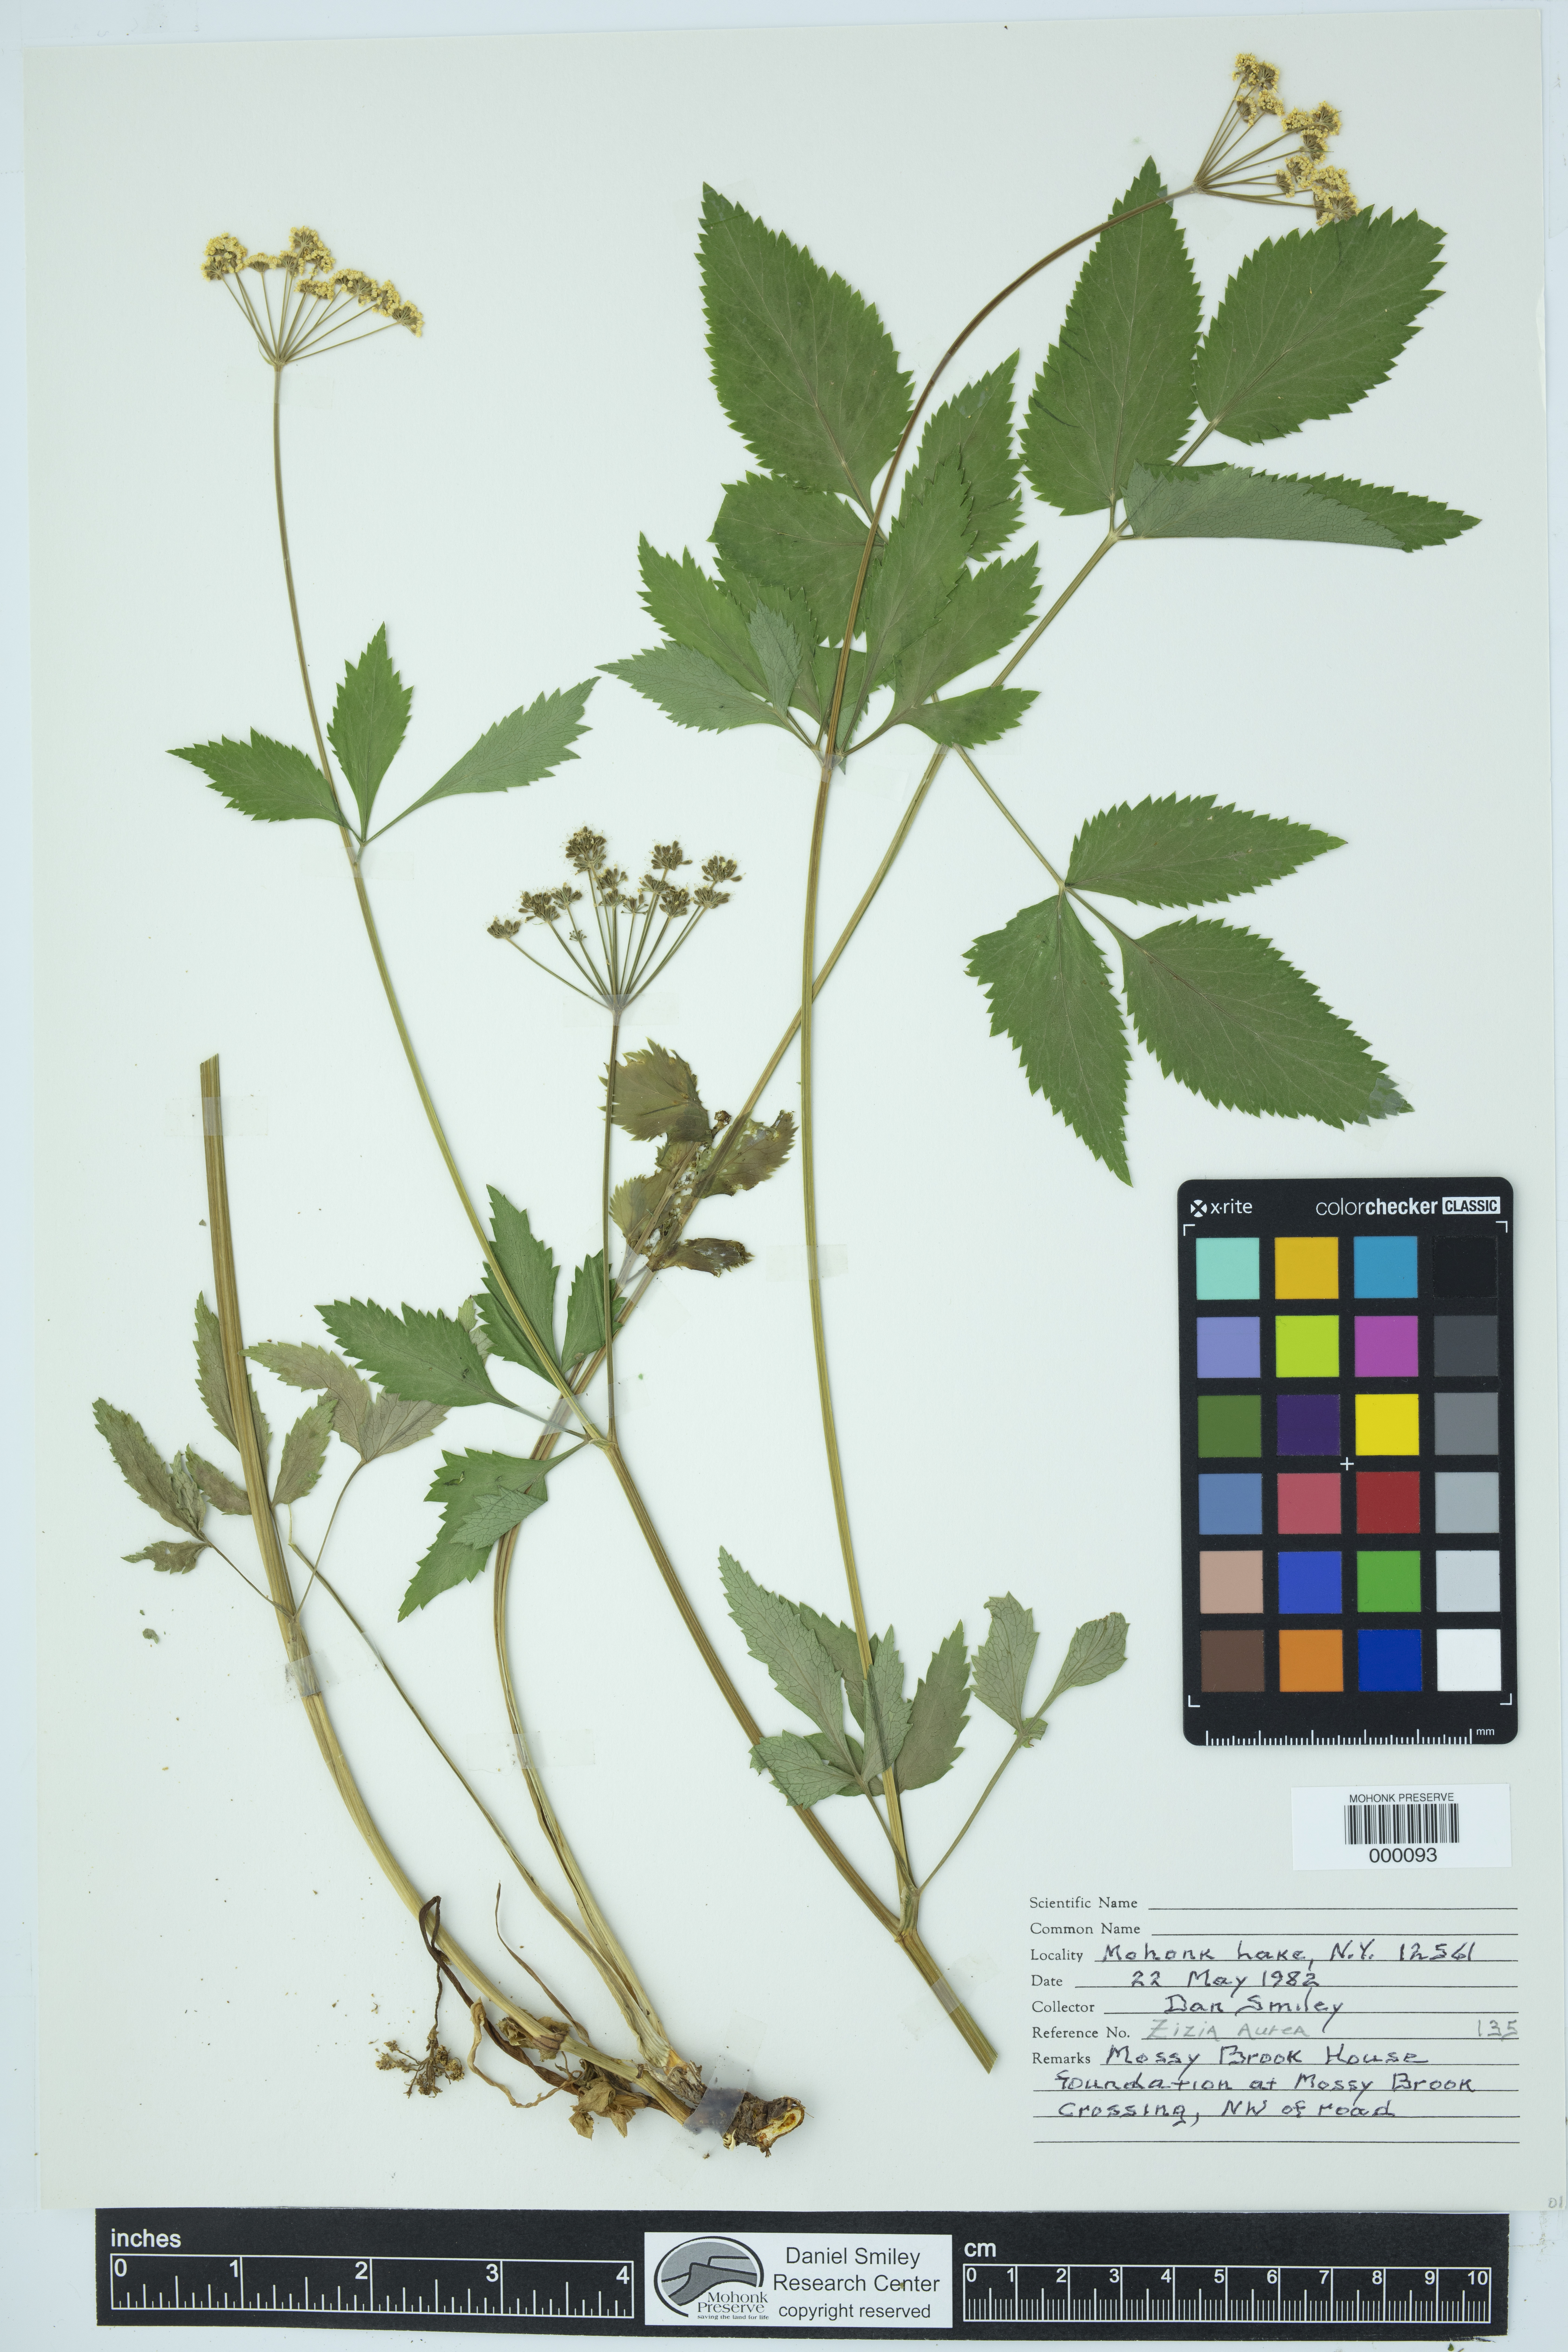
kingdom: Plantae
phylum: Tracheophyta
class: Magnoliopsida
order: Apiales
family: Apiaceae
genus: Zizia
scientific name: Zizia aurea
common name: Golden alexanders
